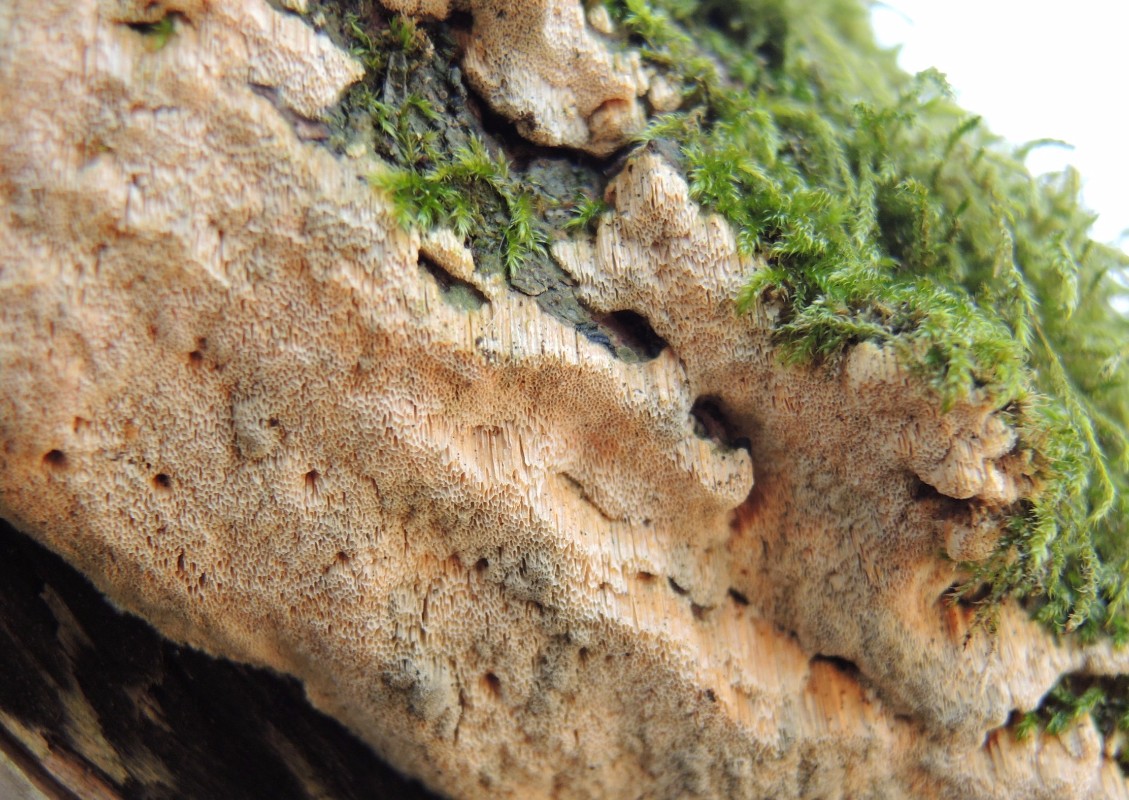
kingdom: Fungi
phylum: Basidiomycota
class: Agaricomycetes
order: Hymenochaetales
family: Schizoporaceae
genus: Xylodon
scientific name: Xylodon flaviporus
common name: gulporet tandsvamp
